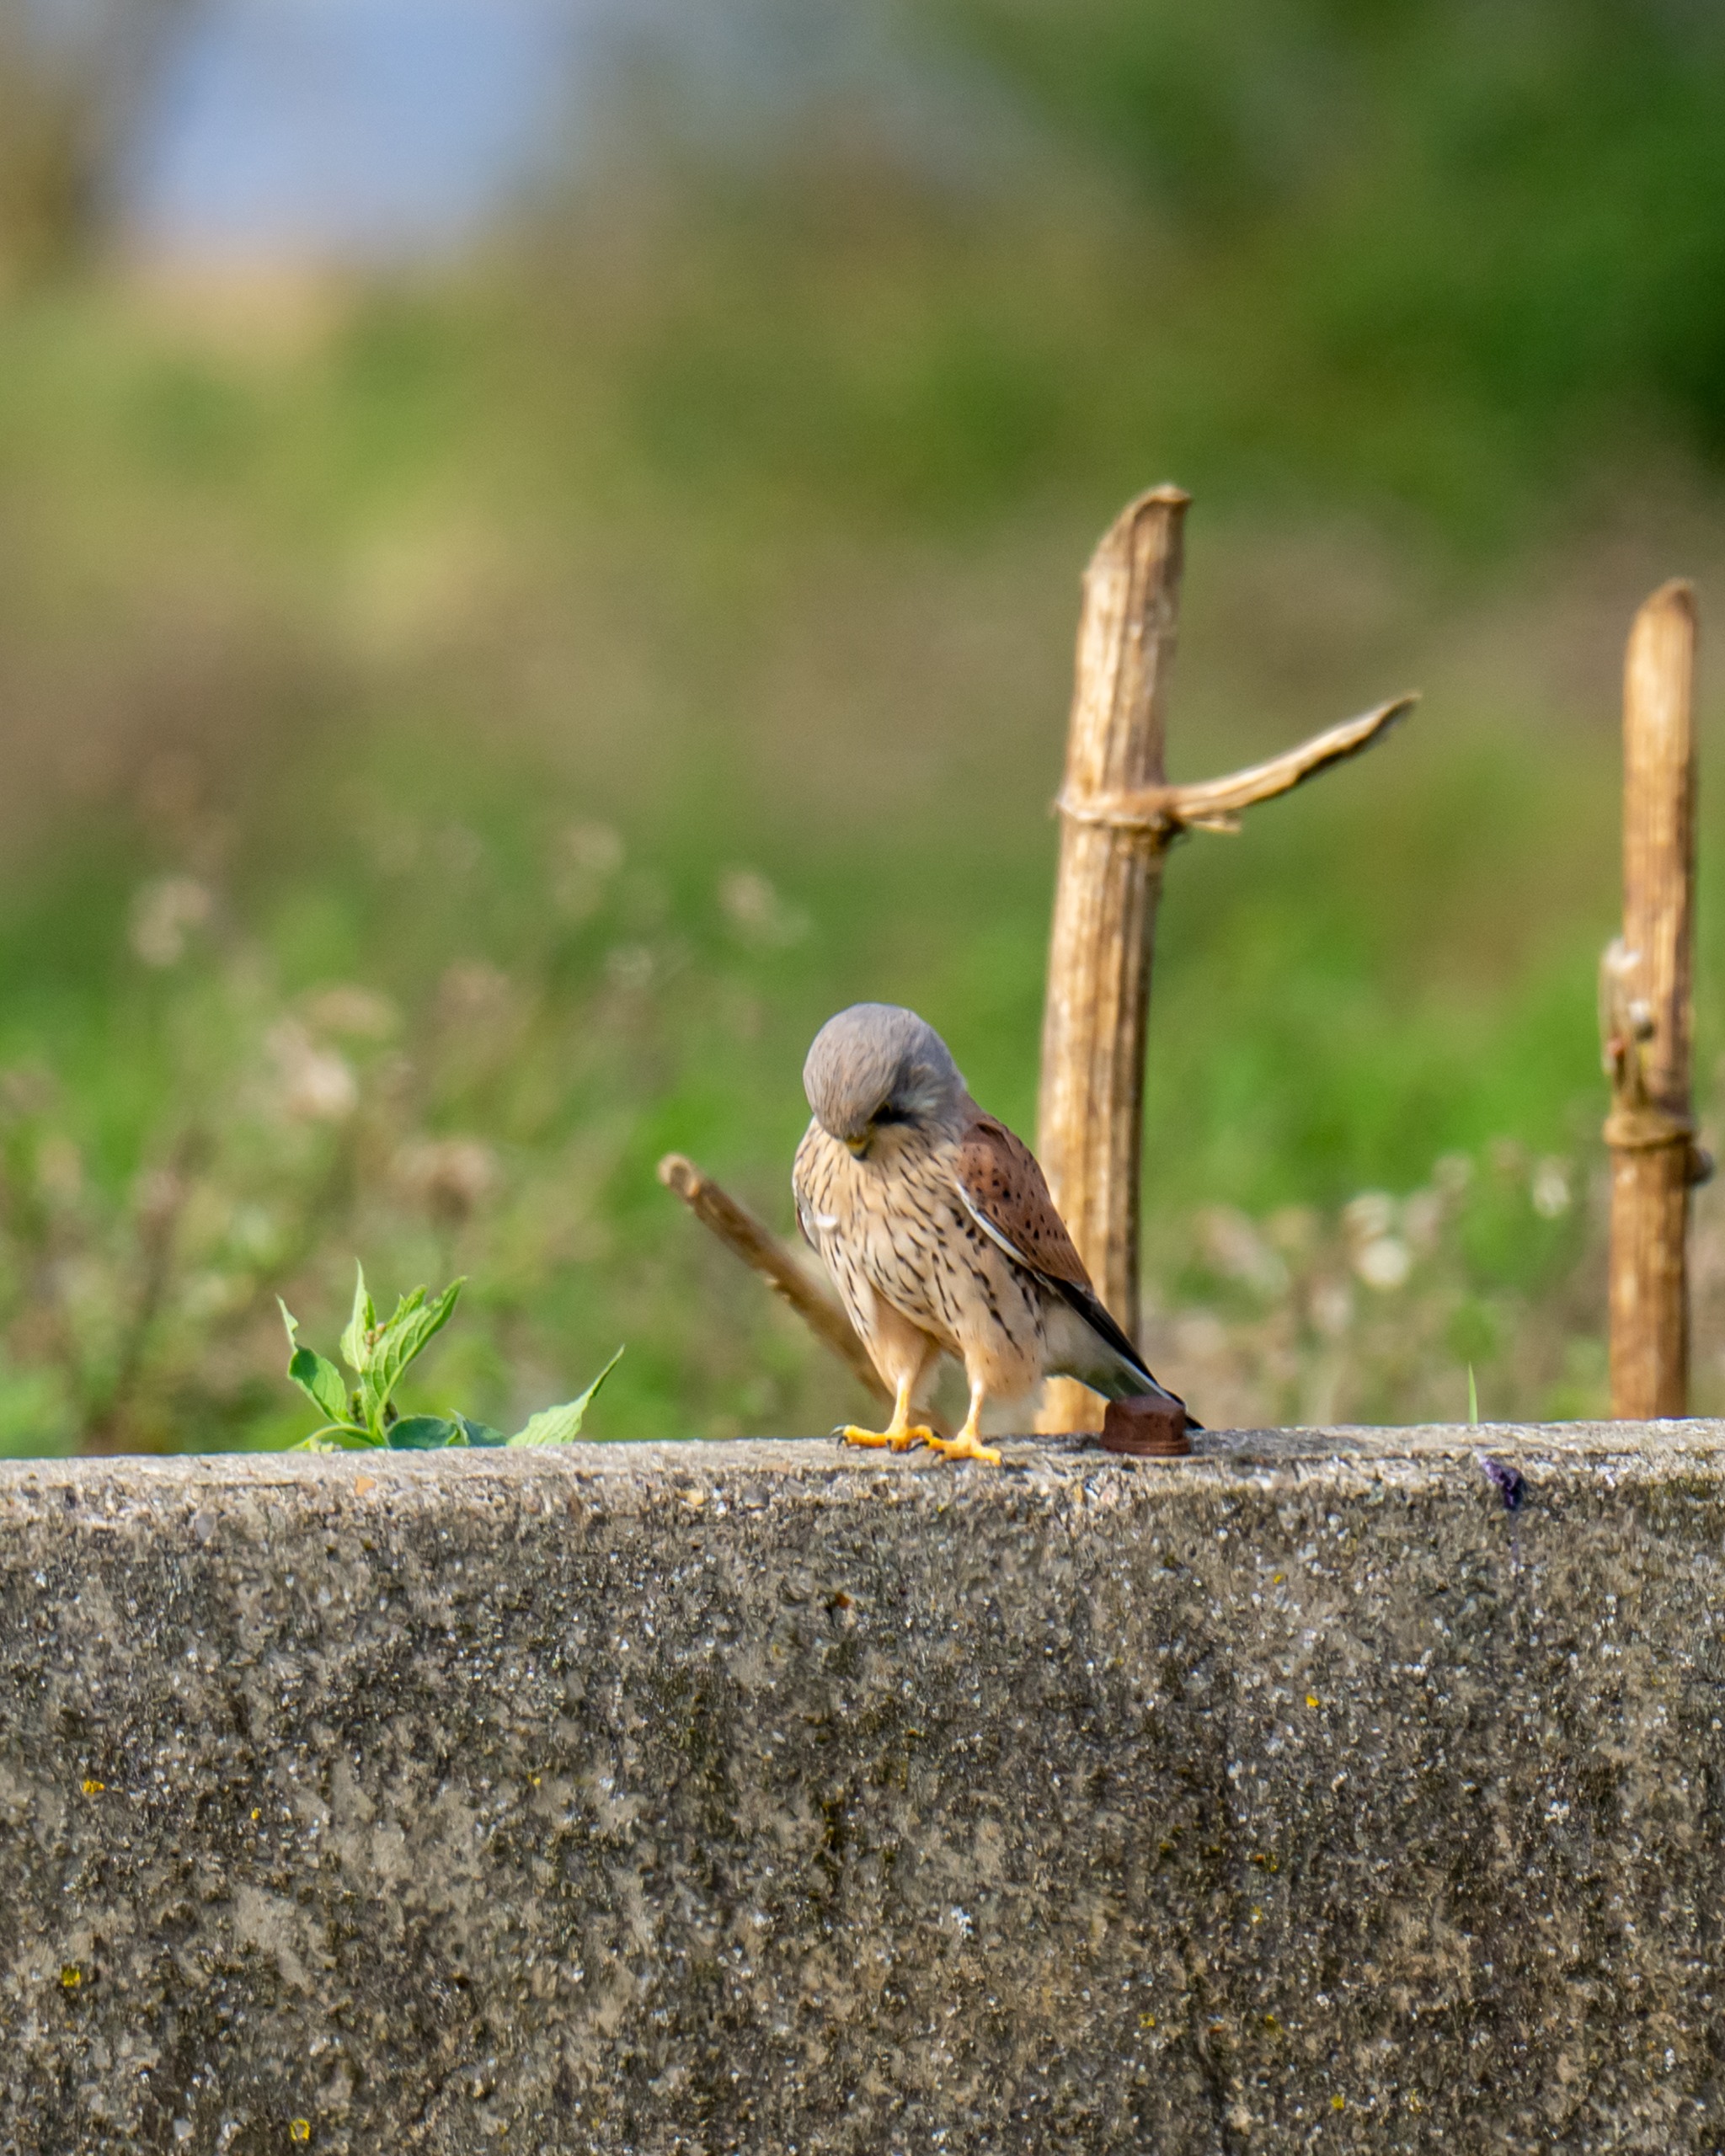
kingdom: Animalia
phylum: Chordata
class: Aves
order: Falconiformes
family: Falconidae
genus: Falco
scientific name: Falco tinnunculus
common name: Tårnfalk
